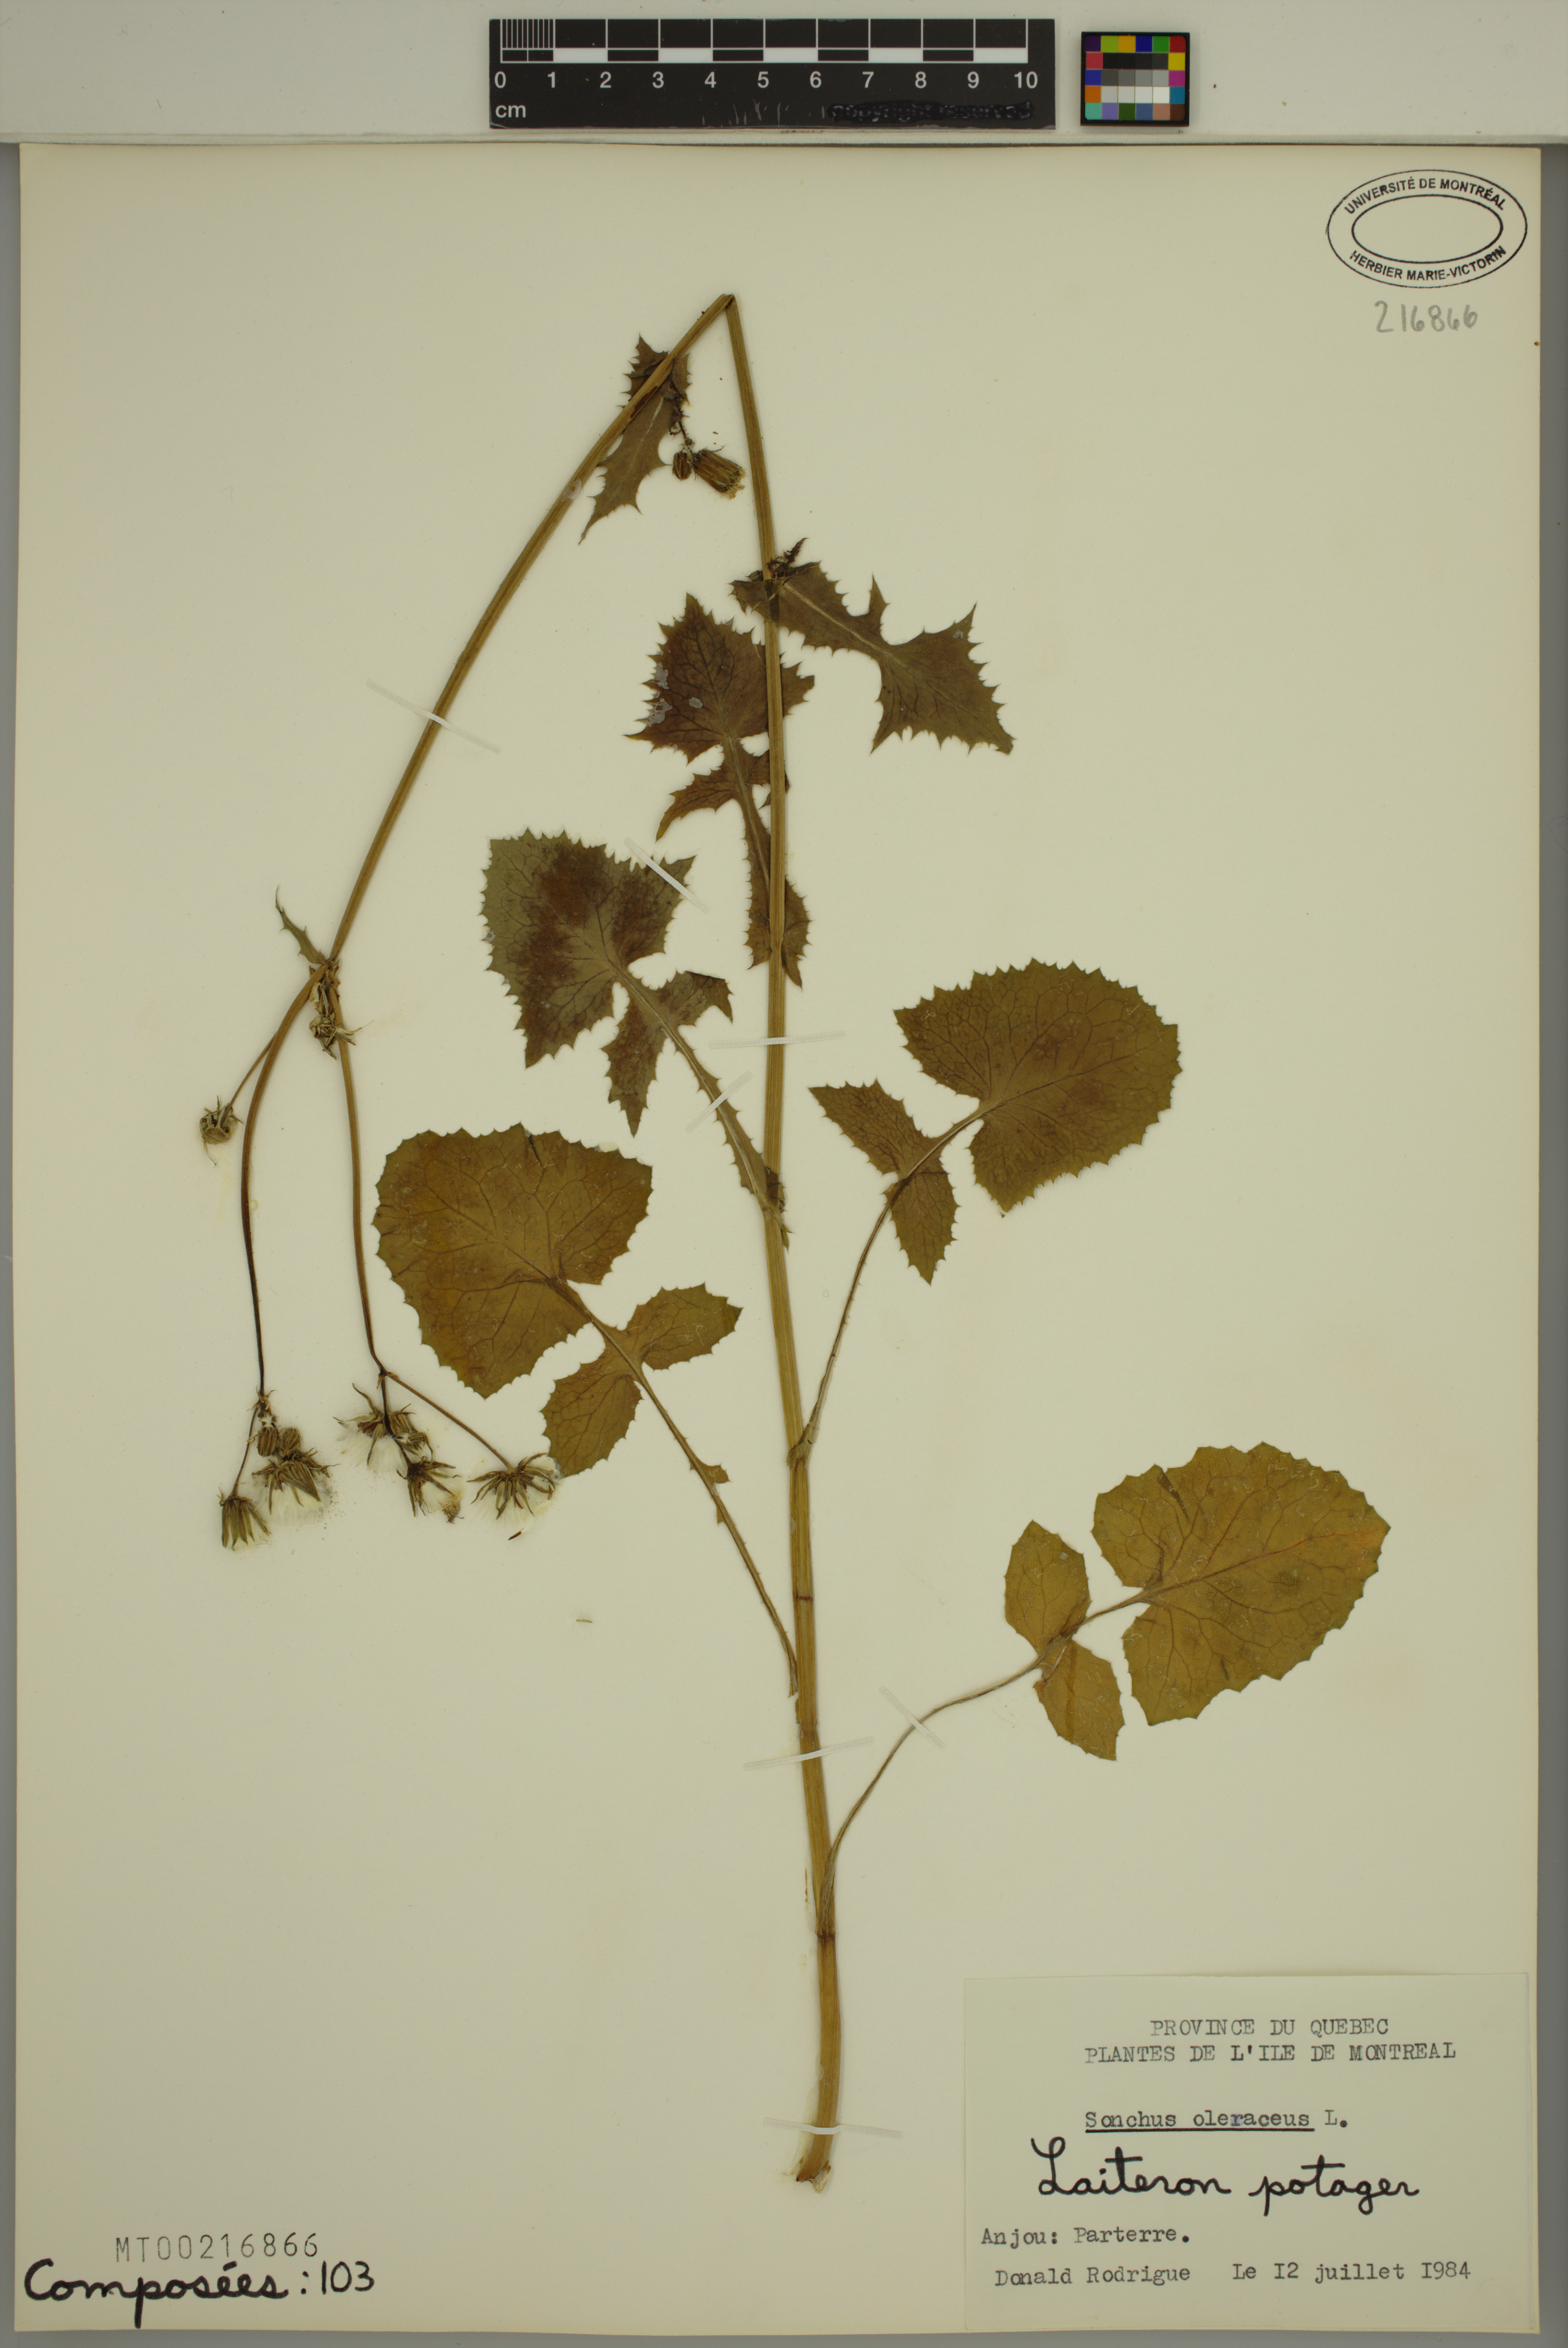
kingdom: Plantae
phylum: Tracheophyta
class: Magnoliopsida
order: Asterales
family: Asteraceae
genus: Sonchus
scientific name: Sonchus oleraceus
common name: Common sowthistle
